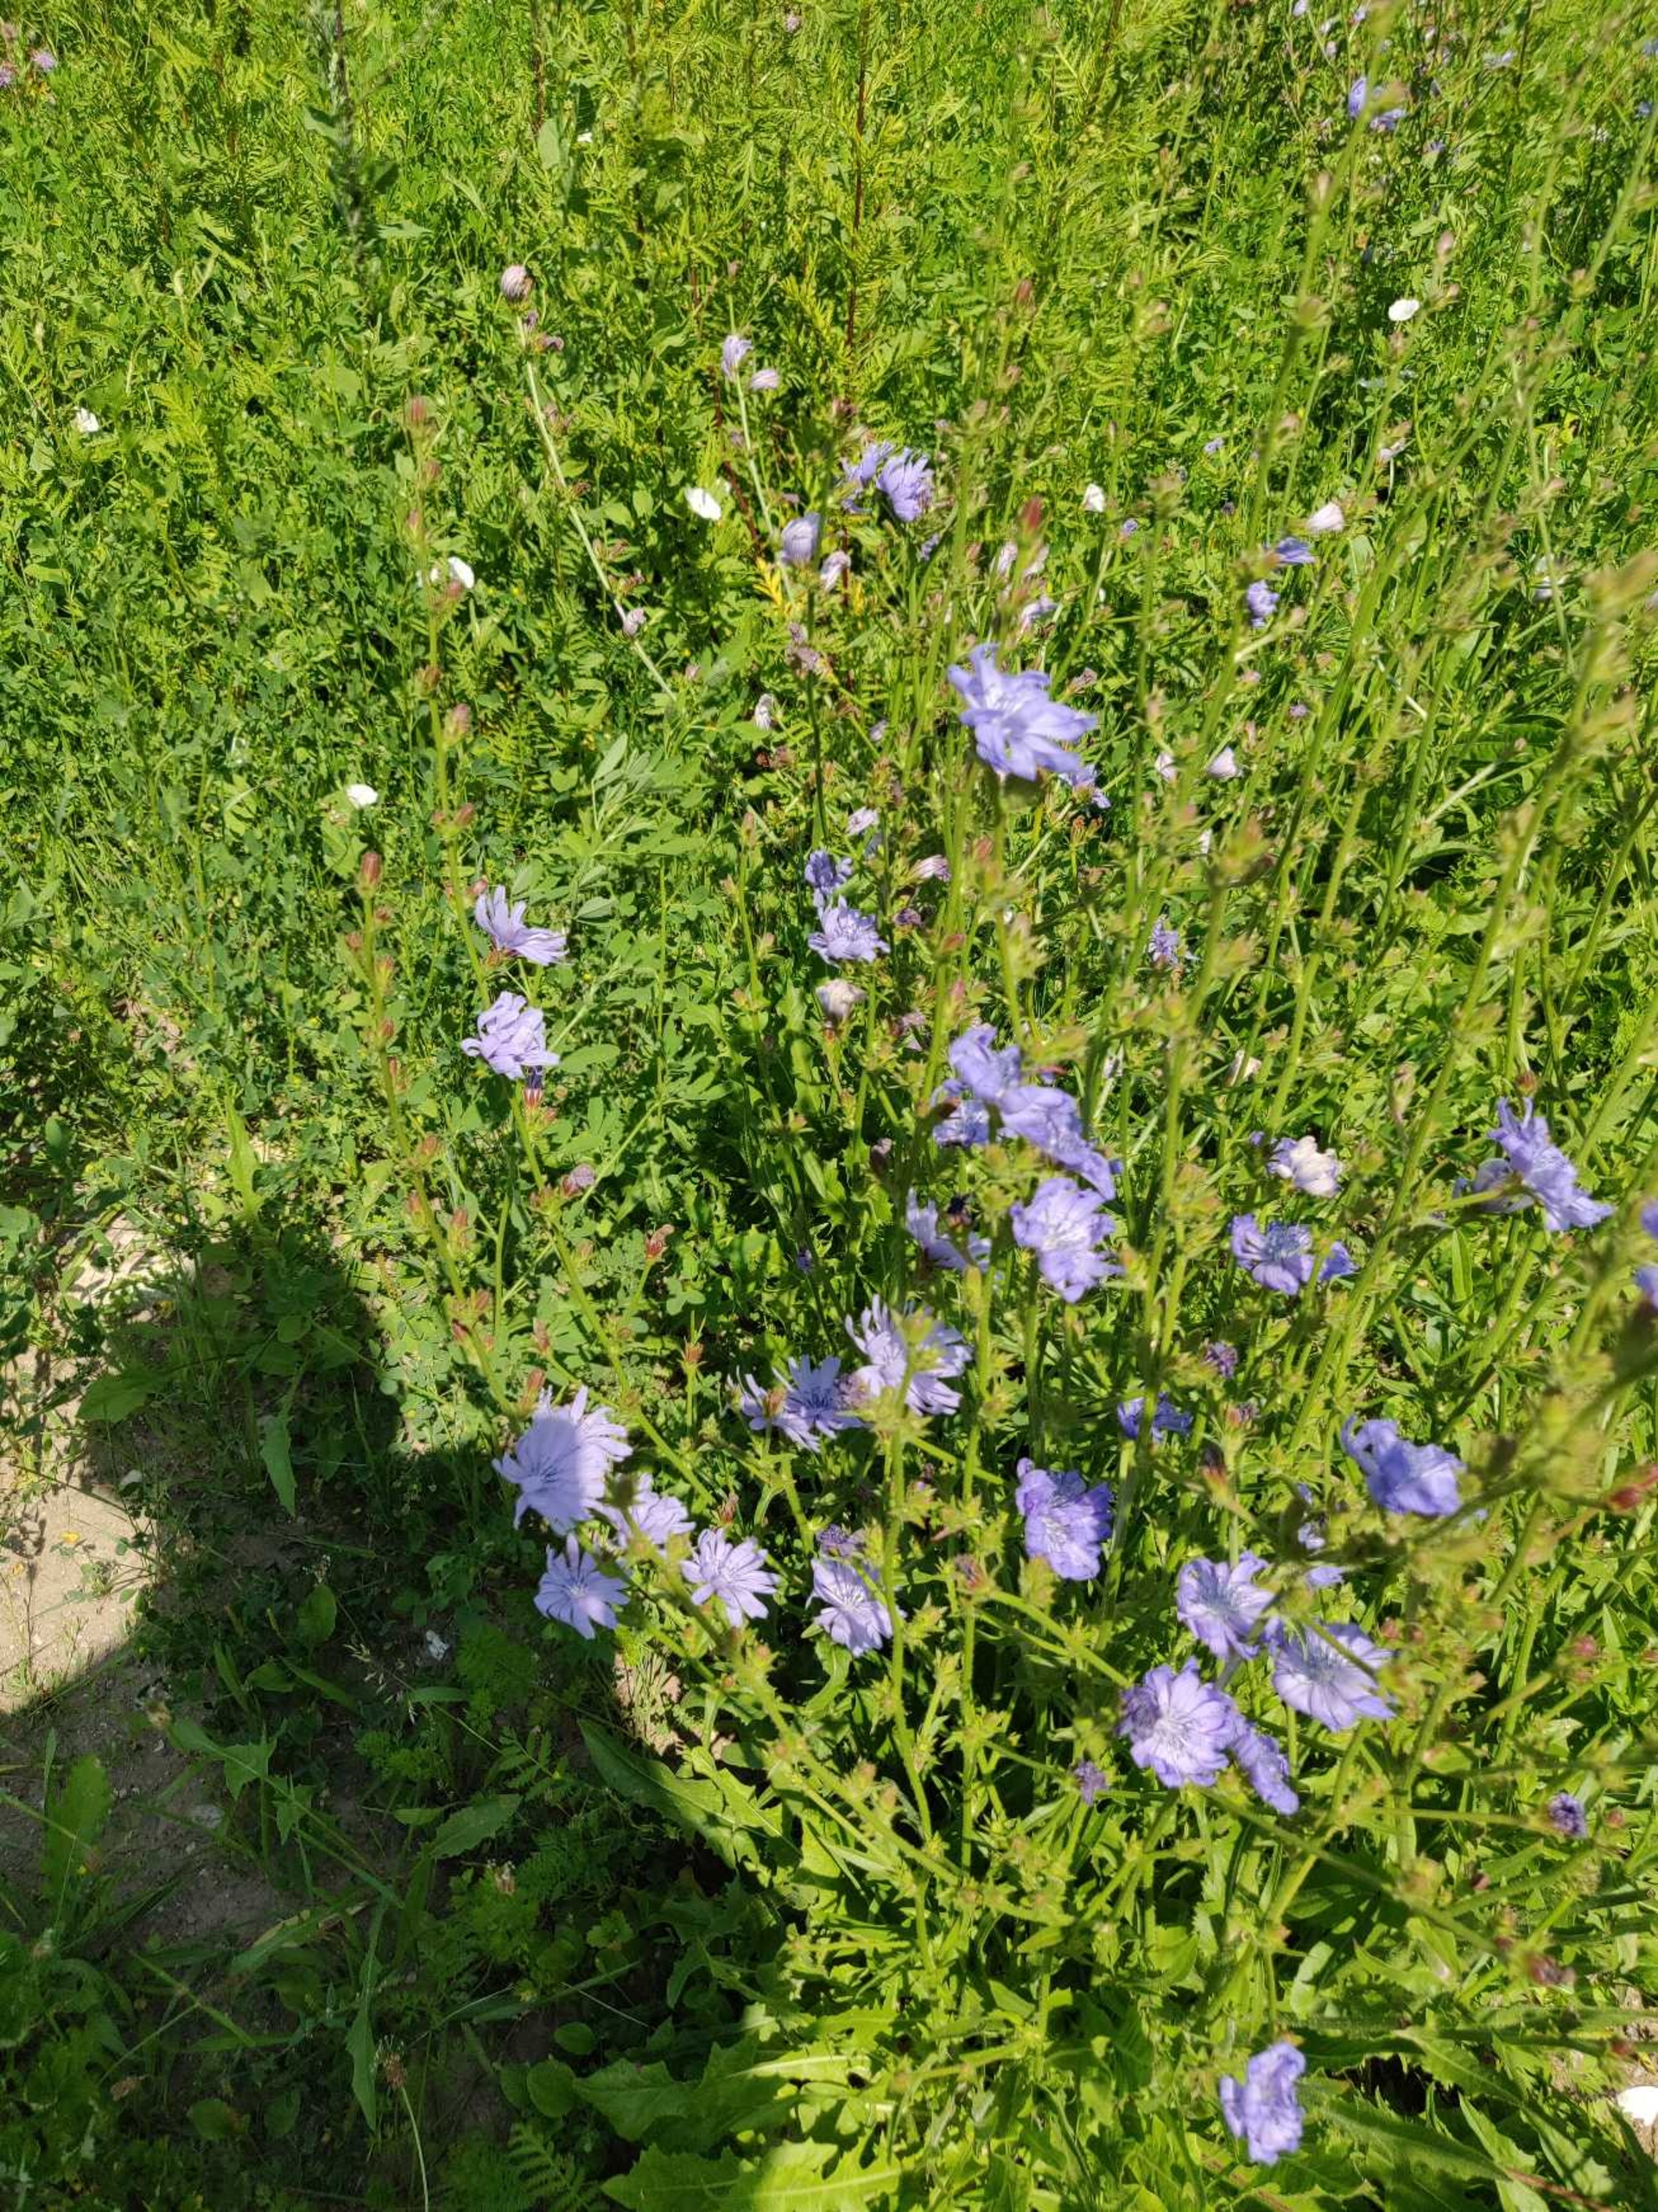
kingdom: Plantae
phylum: Tracheophyta
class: Magnoliopsida
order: Asterales
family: Asteraceae
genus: Cichorium
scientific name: Cichorium intybus
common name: Cikorie
